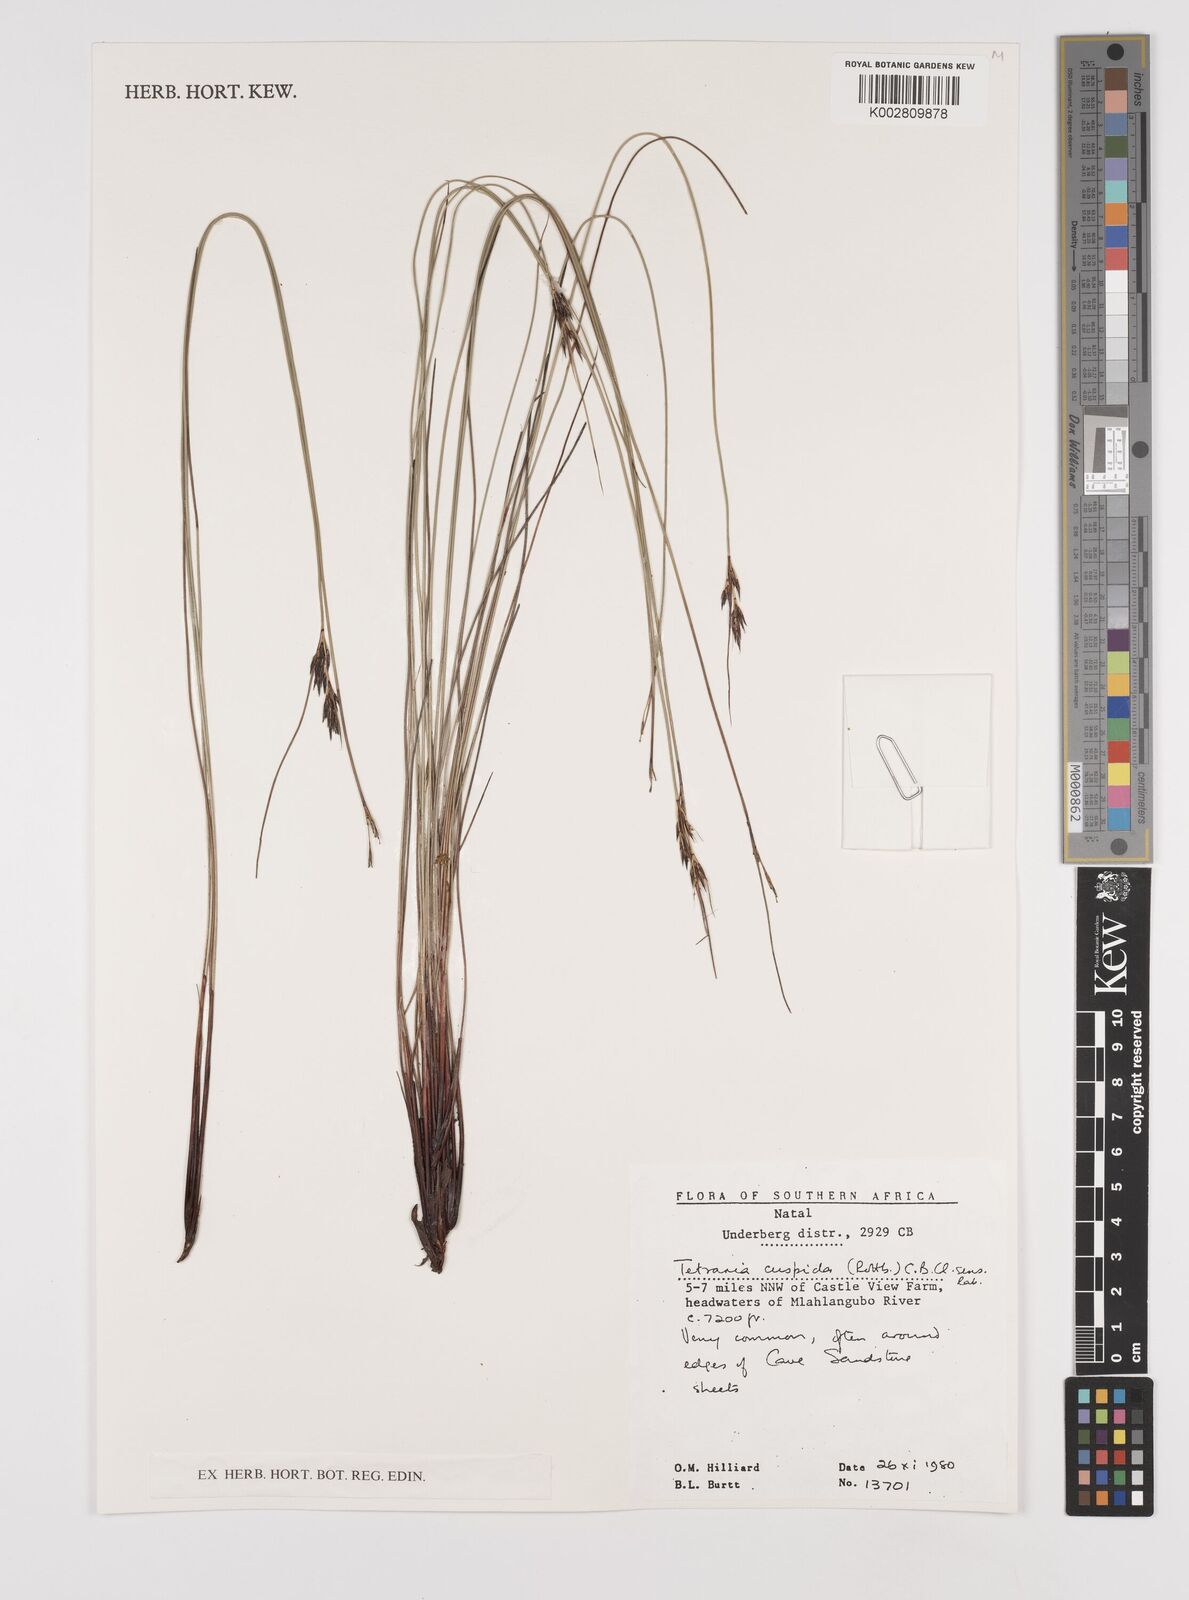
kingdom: Plantae
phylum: Tracheophyta
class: Liliopsida
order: Poales
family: Cyperaceae
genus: Schoenus
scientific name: Schoenus
